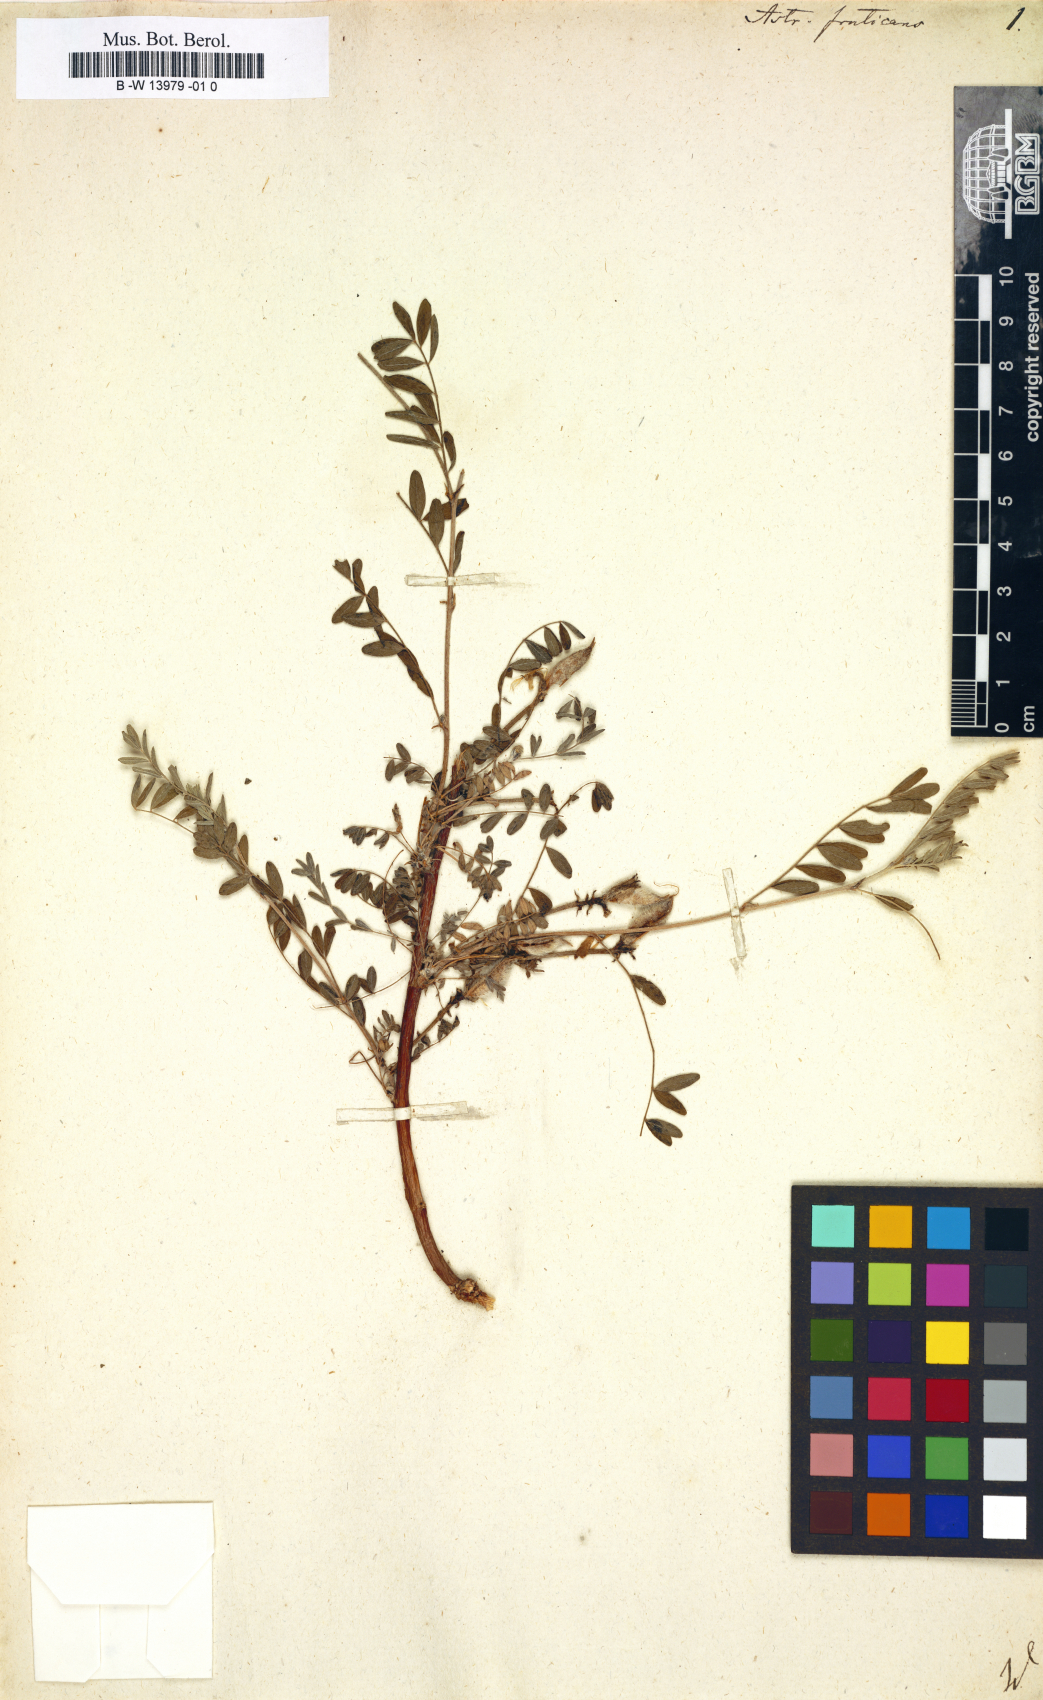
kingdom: Plantae
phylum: Tracheophyta
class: Magnoliopsida
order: Fabales
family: Fabaceae
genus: Astragalus
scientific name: Astragalus
